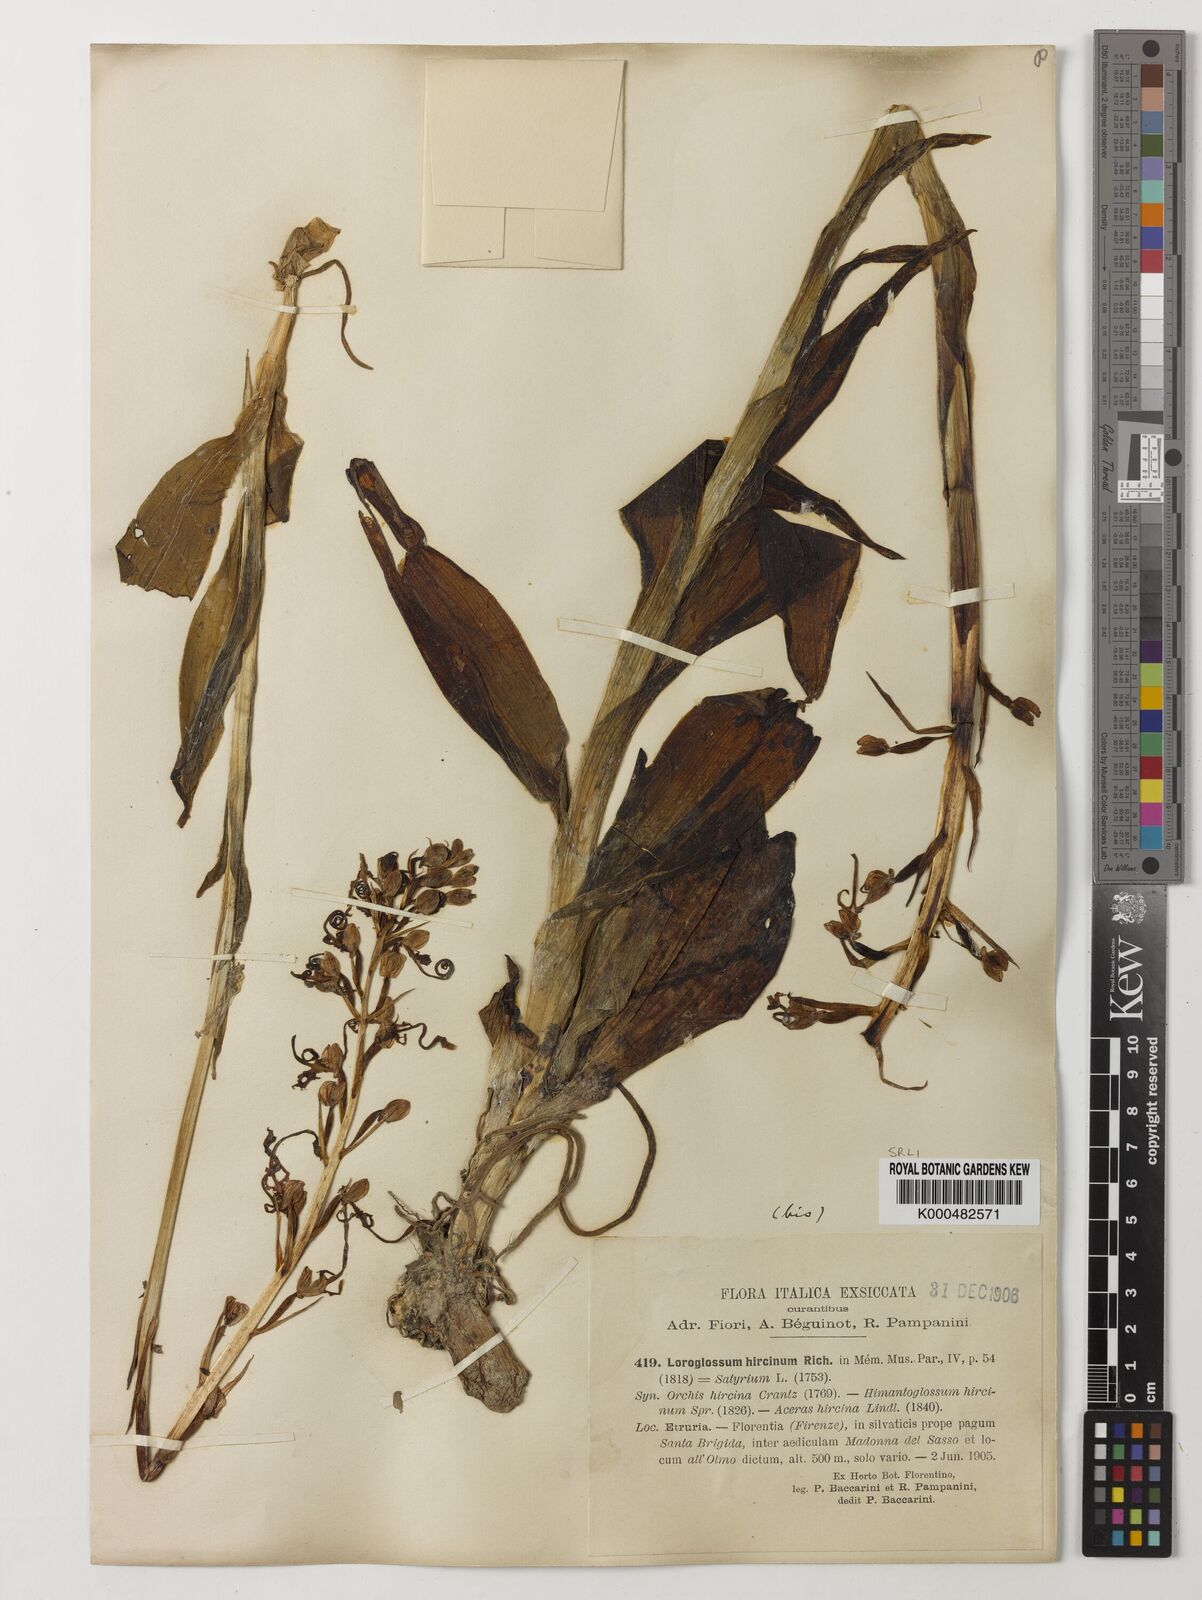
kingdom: Plantae
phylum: Tracheophyta
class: Liliopsida
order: Asparagales
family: Orchidaceae
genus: Himantoglossum
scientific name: Himantoglossum adriaticum
